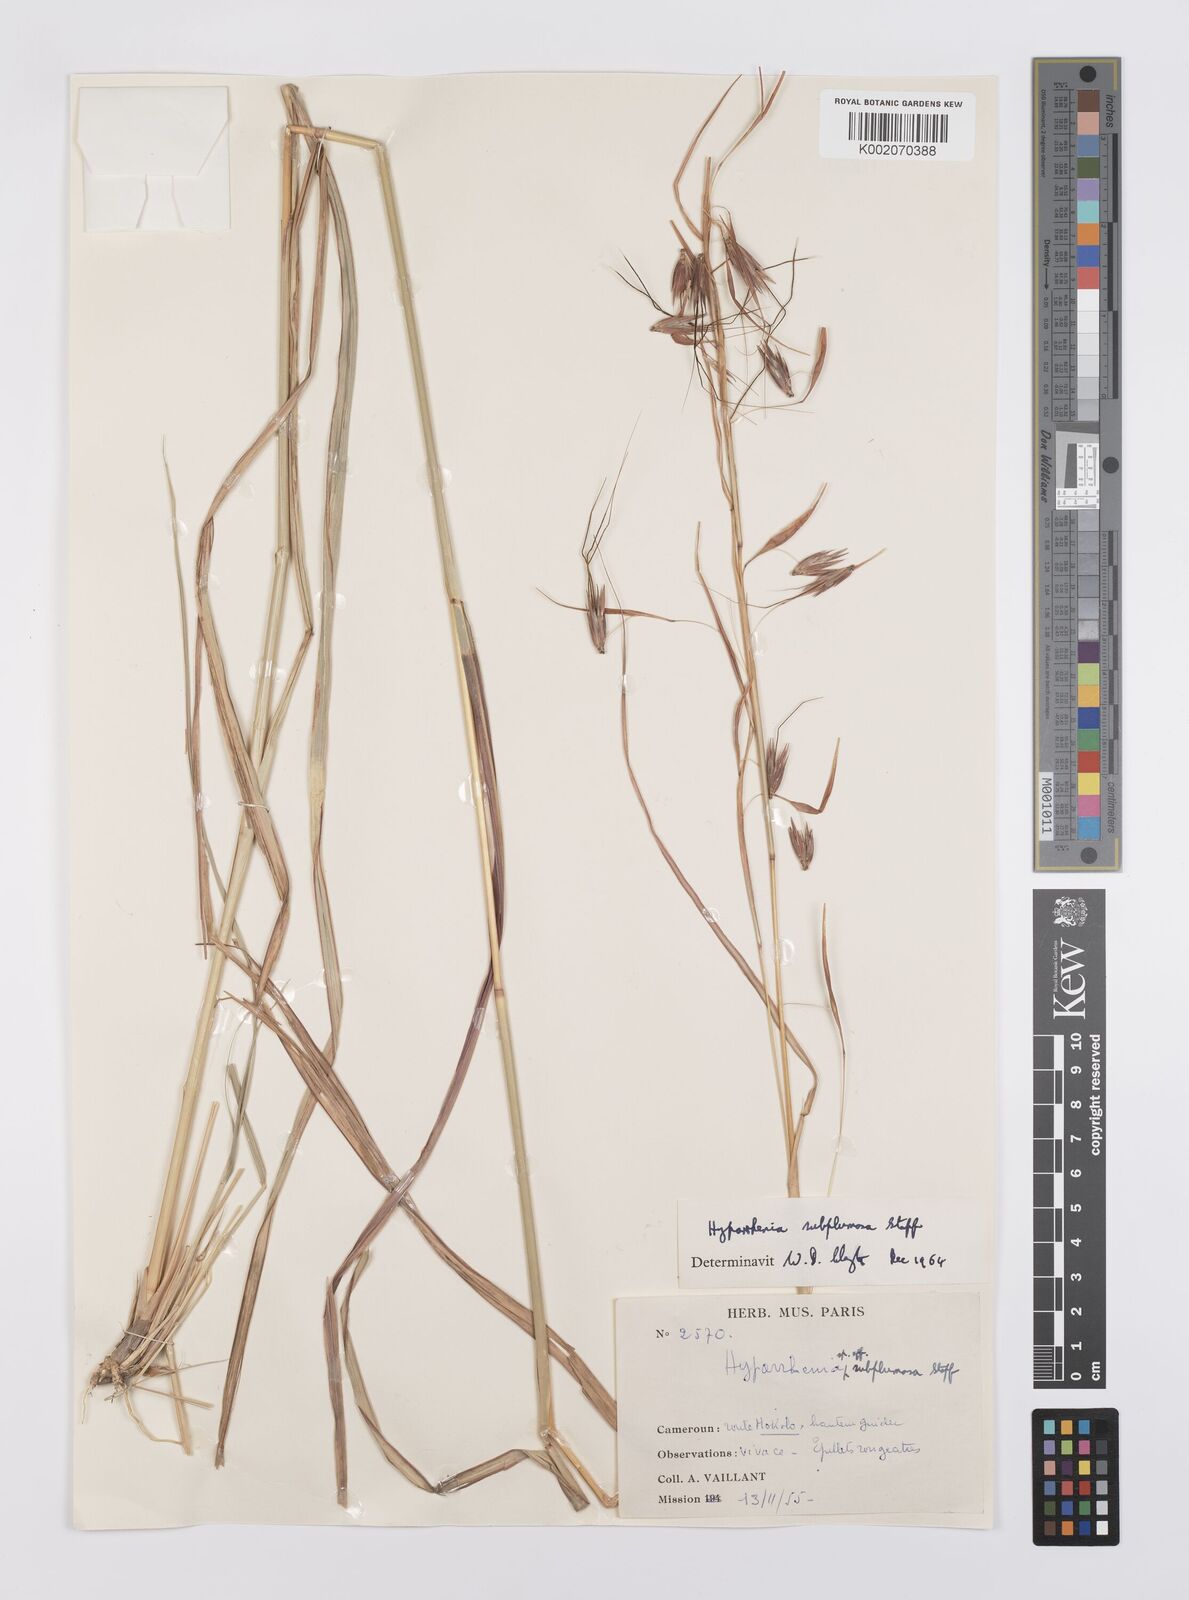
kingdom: Plantae
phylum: Tracheophyta
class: Liliopsida
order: Poales
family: Poaceae
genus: Hyparrhenia
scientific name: Hyparrhenia subplumosa
